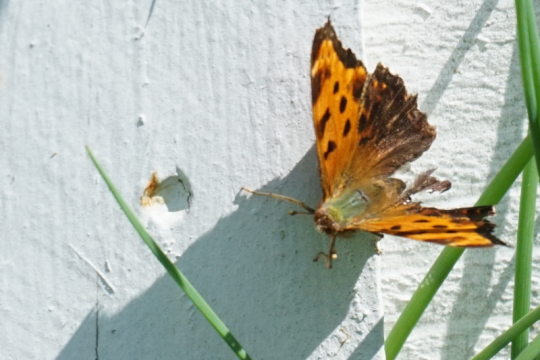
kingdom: Animalia
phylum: Arthropoda
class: Insecta
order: Lepidoptera
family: Nymphalidae
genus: Polygonia
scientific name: Polygonia comma
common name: Eastern Comma
